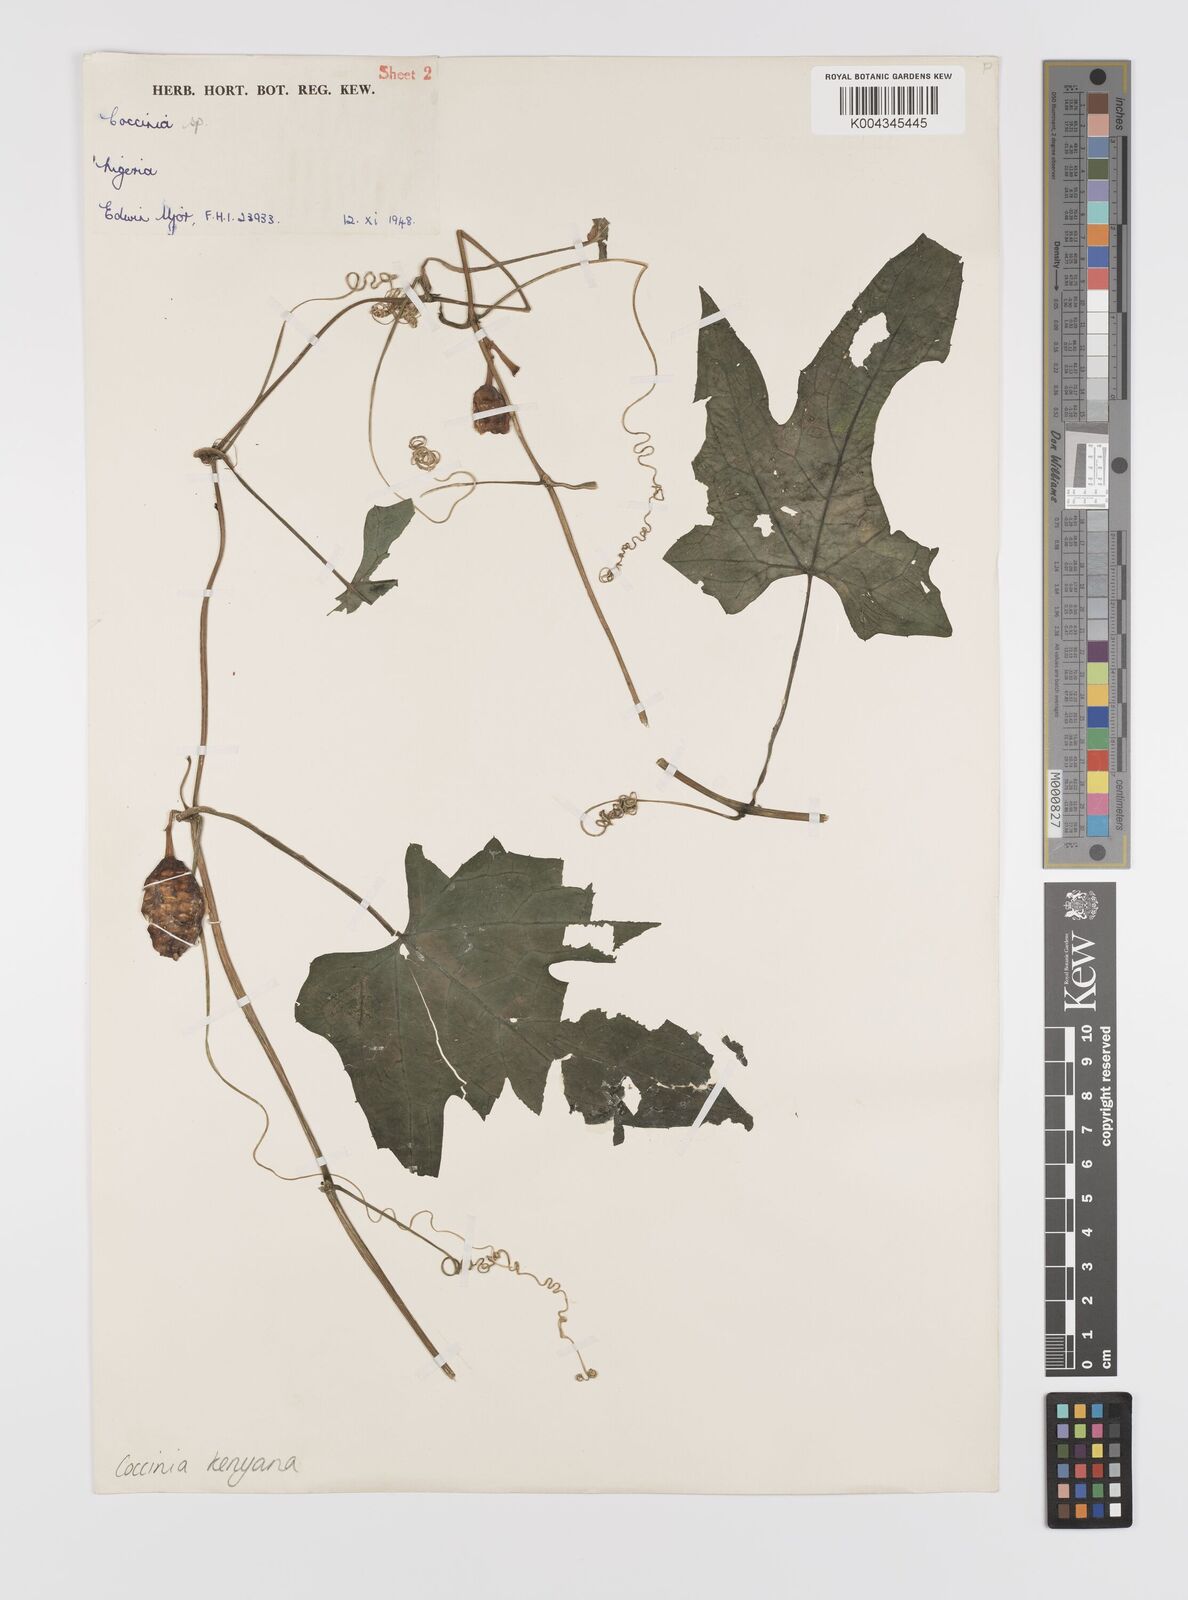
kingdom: Plantae
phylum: Tracheophyta
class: Magnoliopsida
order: Cucurbitales
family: Cucurbitaceae
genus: Coccinia
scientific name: Coccinia keayana
